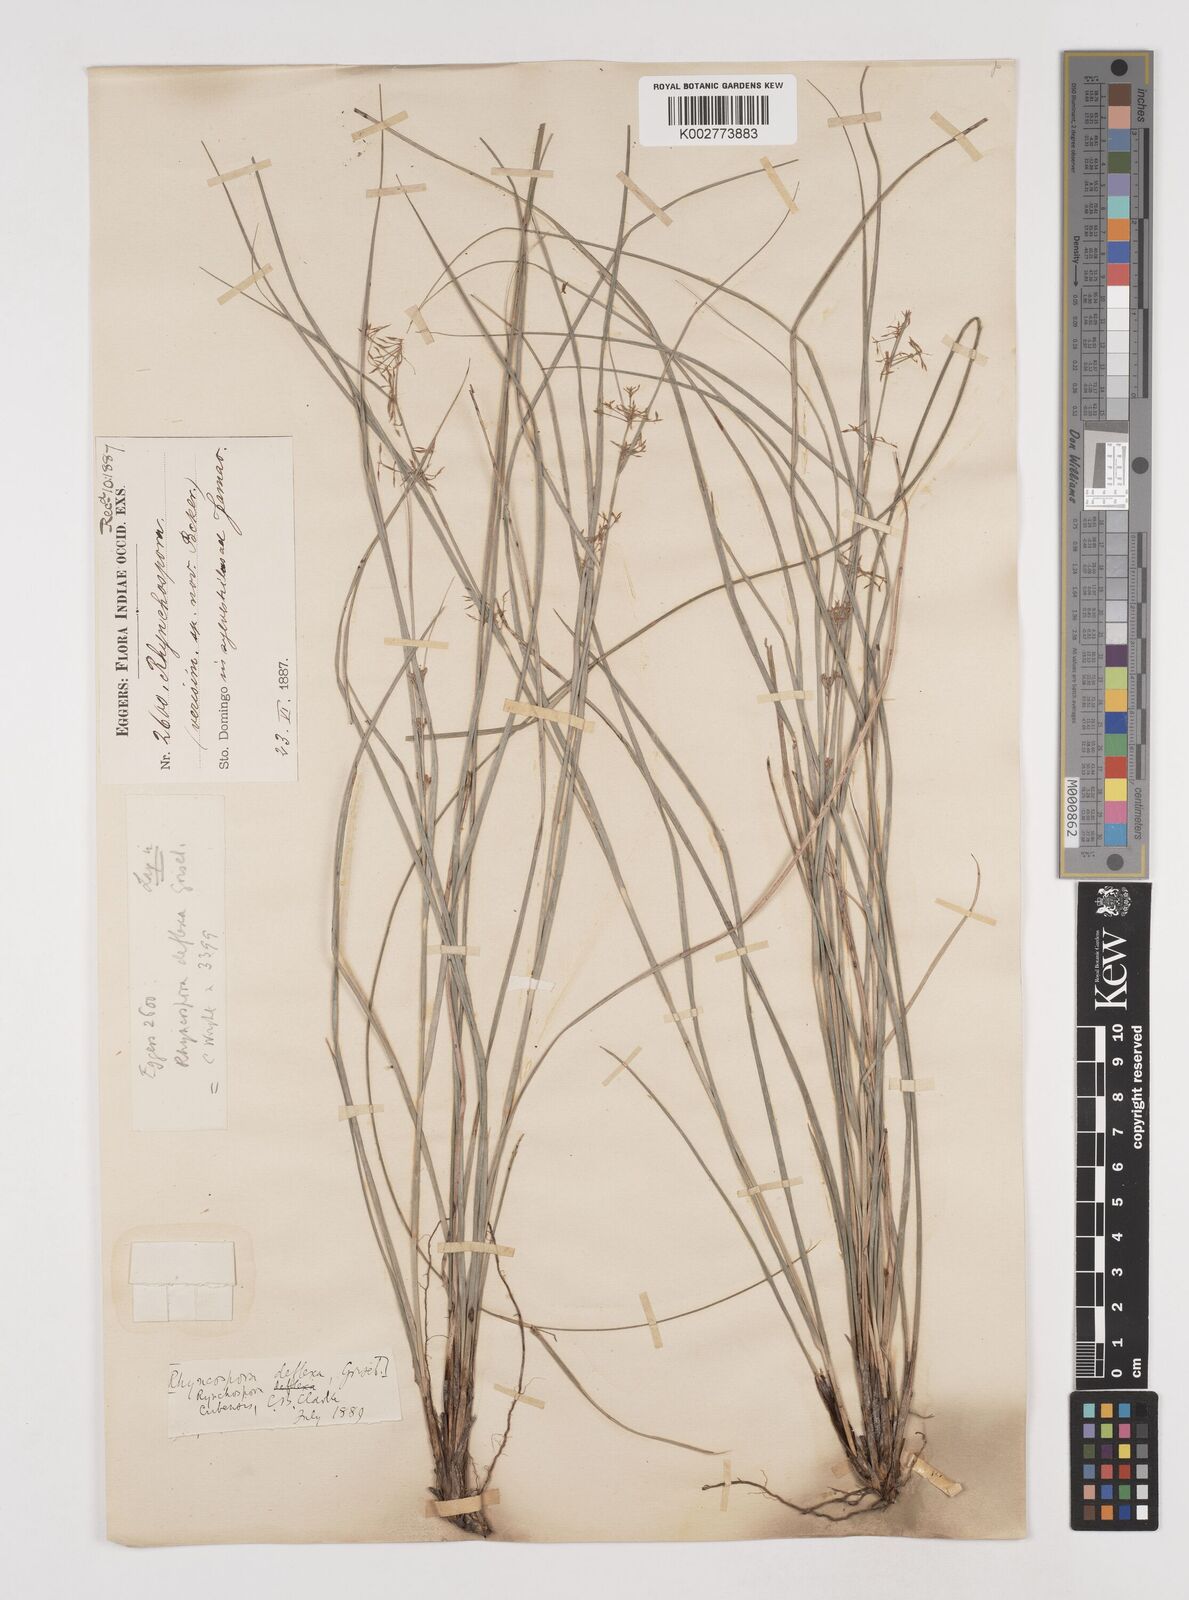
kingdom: Plantae
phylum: Tracheophyta
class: Liliopsida
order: Poales
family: Cyperaceae
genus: Rhynchospora
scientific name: Rhynchospora cubensis
